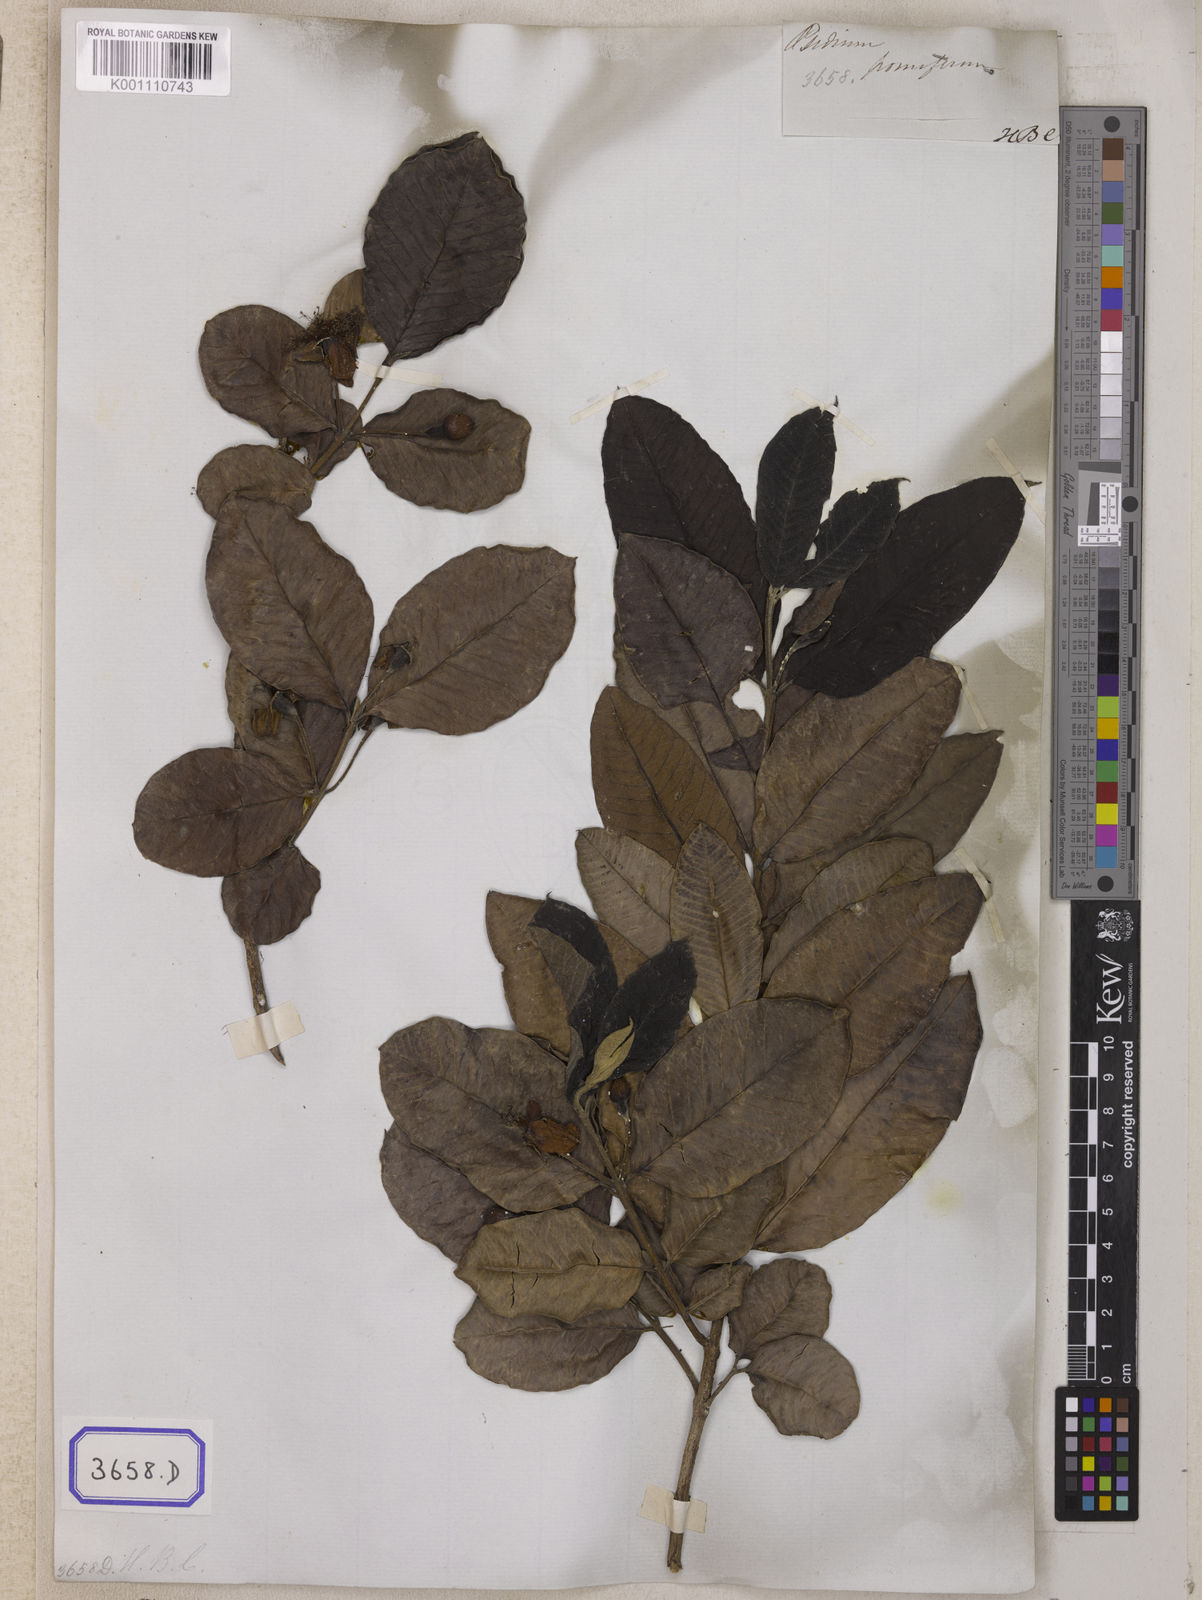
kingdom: Plantae
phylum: Tracheophyta
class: Magnoliopsida
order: Myrtales
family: Myrtaceae
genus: Psidium
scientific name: Psidium guajava
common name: Guava
